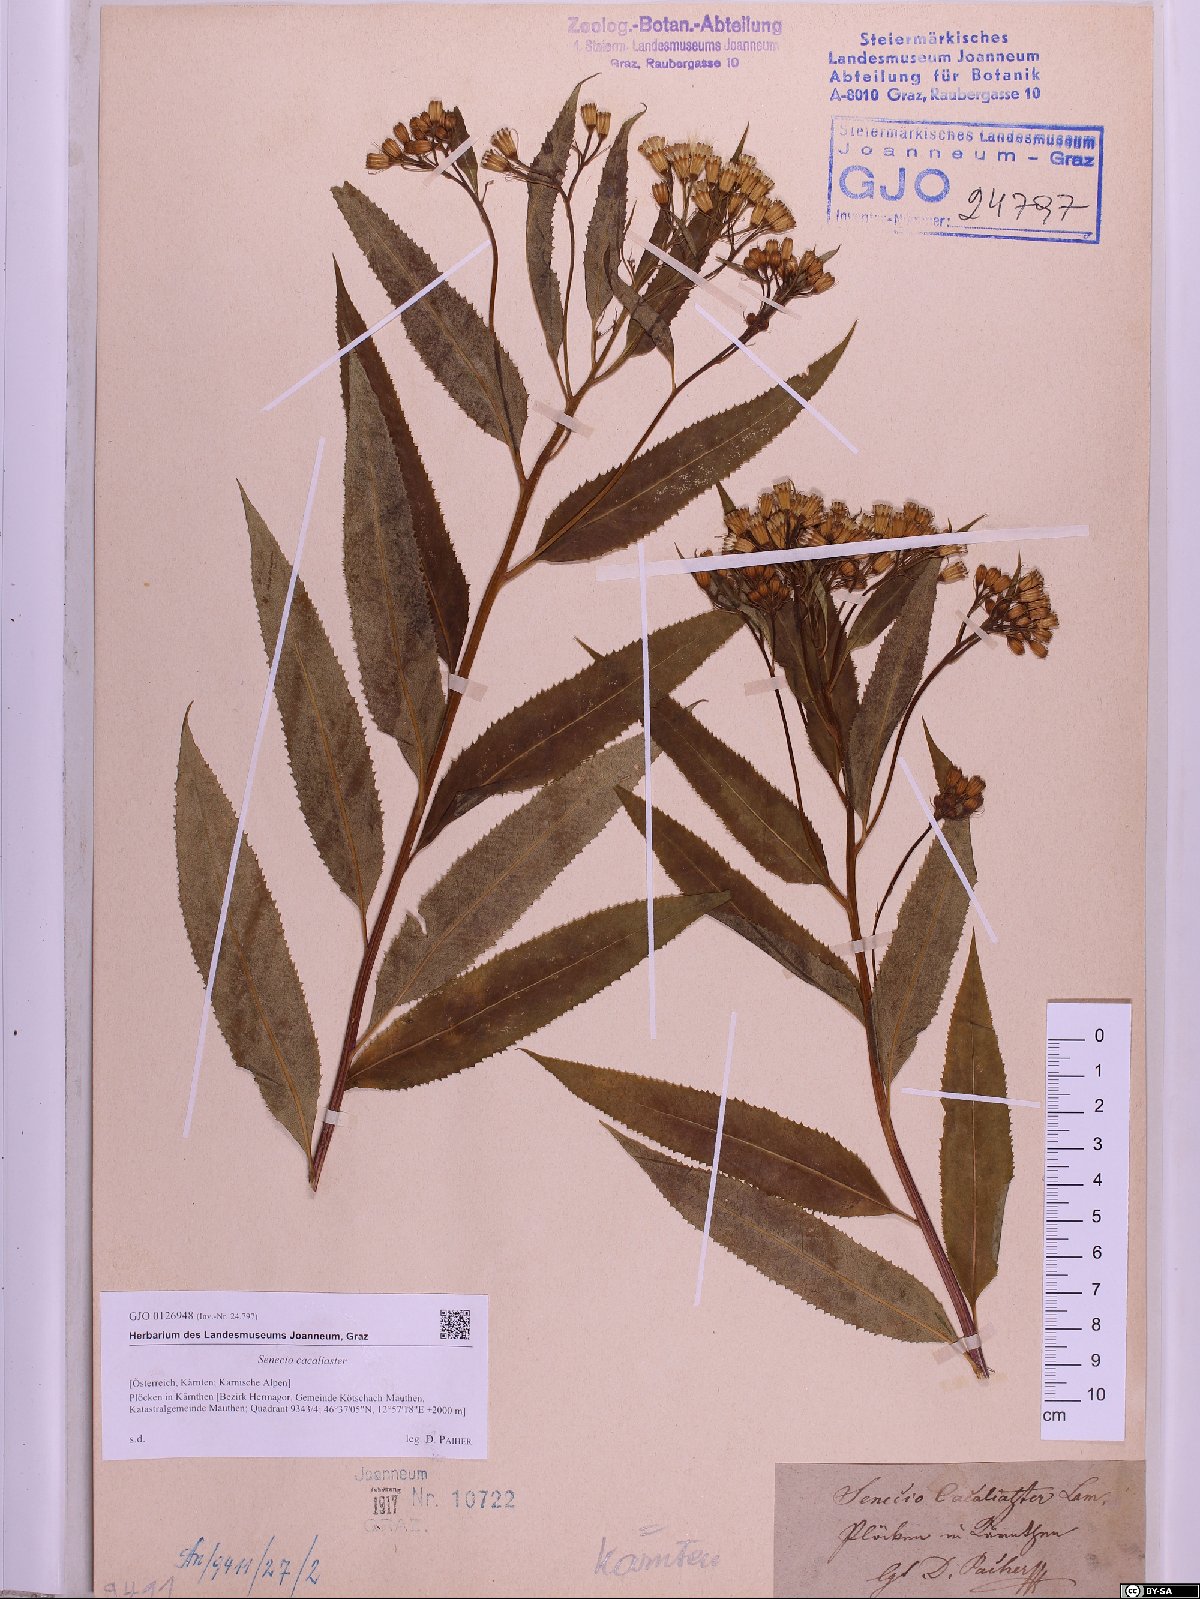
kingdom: Plantae
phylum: Tracheophyta
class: Magnoliopsida
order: Asterales
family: Asteraceae
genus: Senecio
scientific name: Senecio cacaliaster
